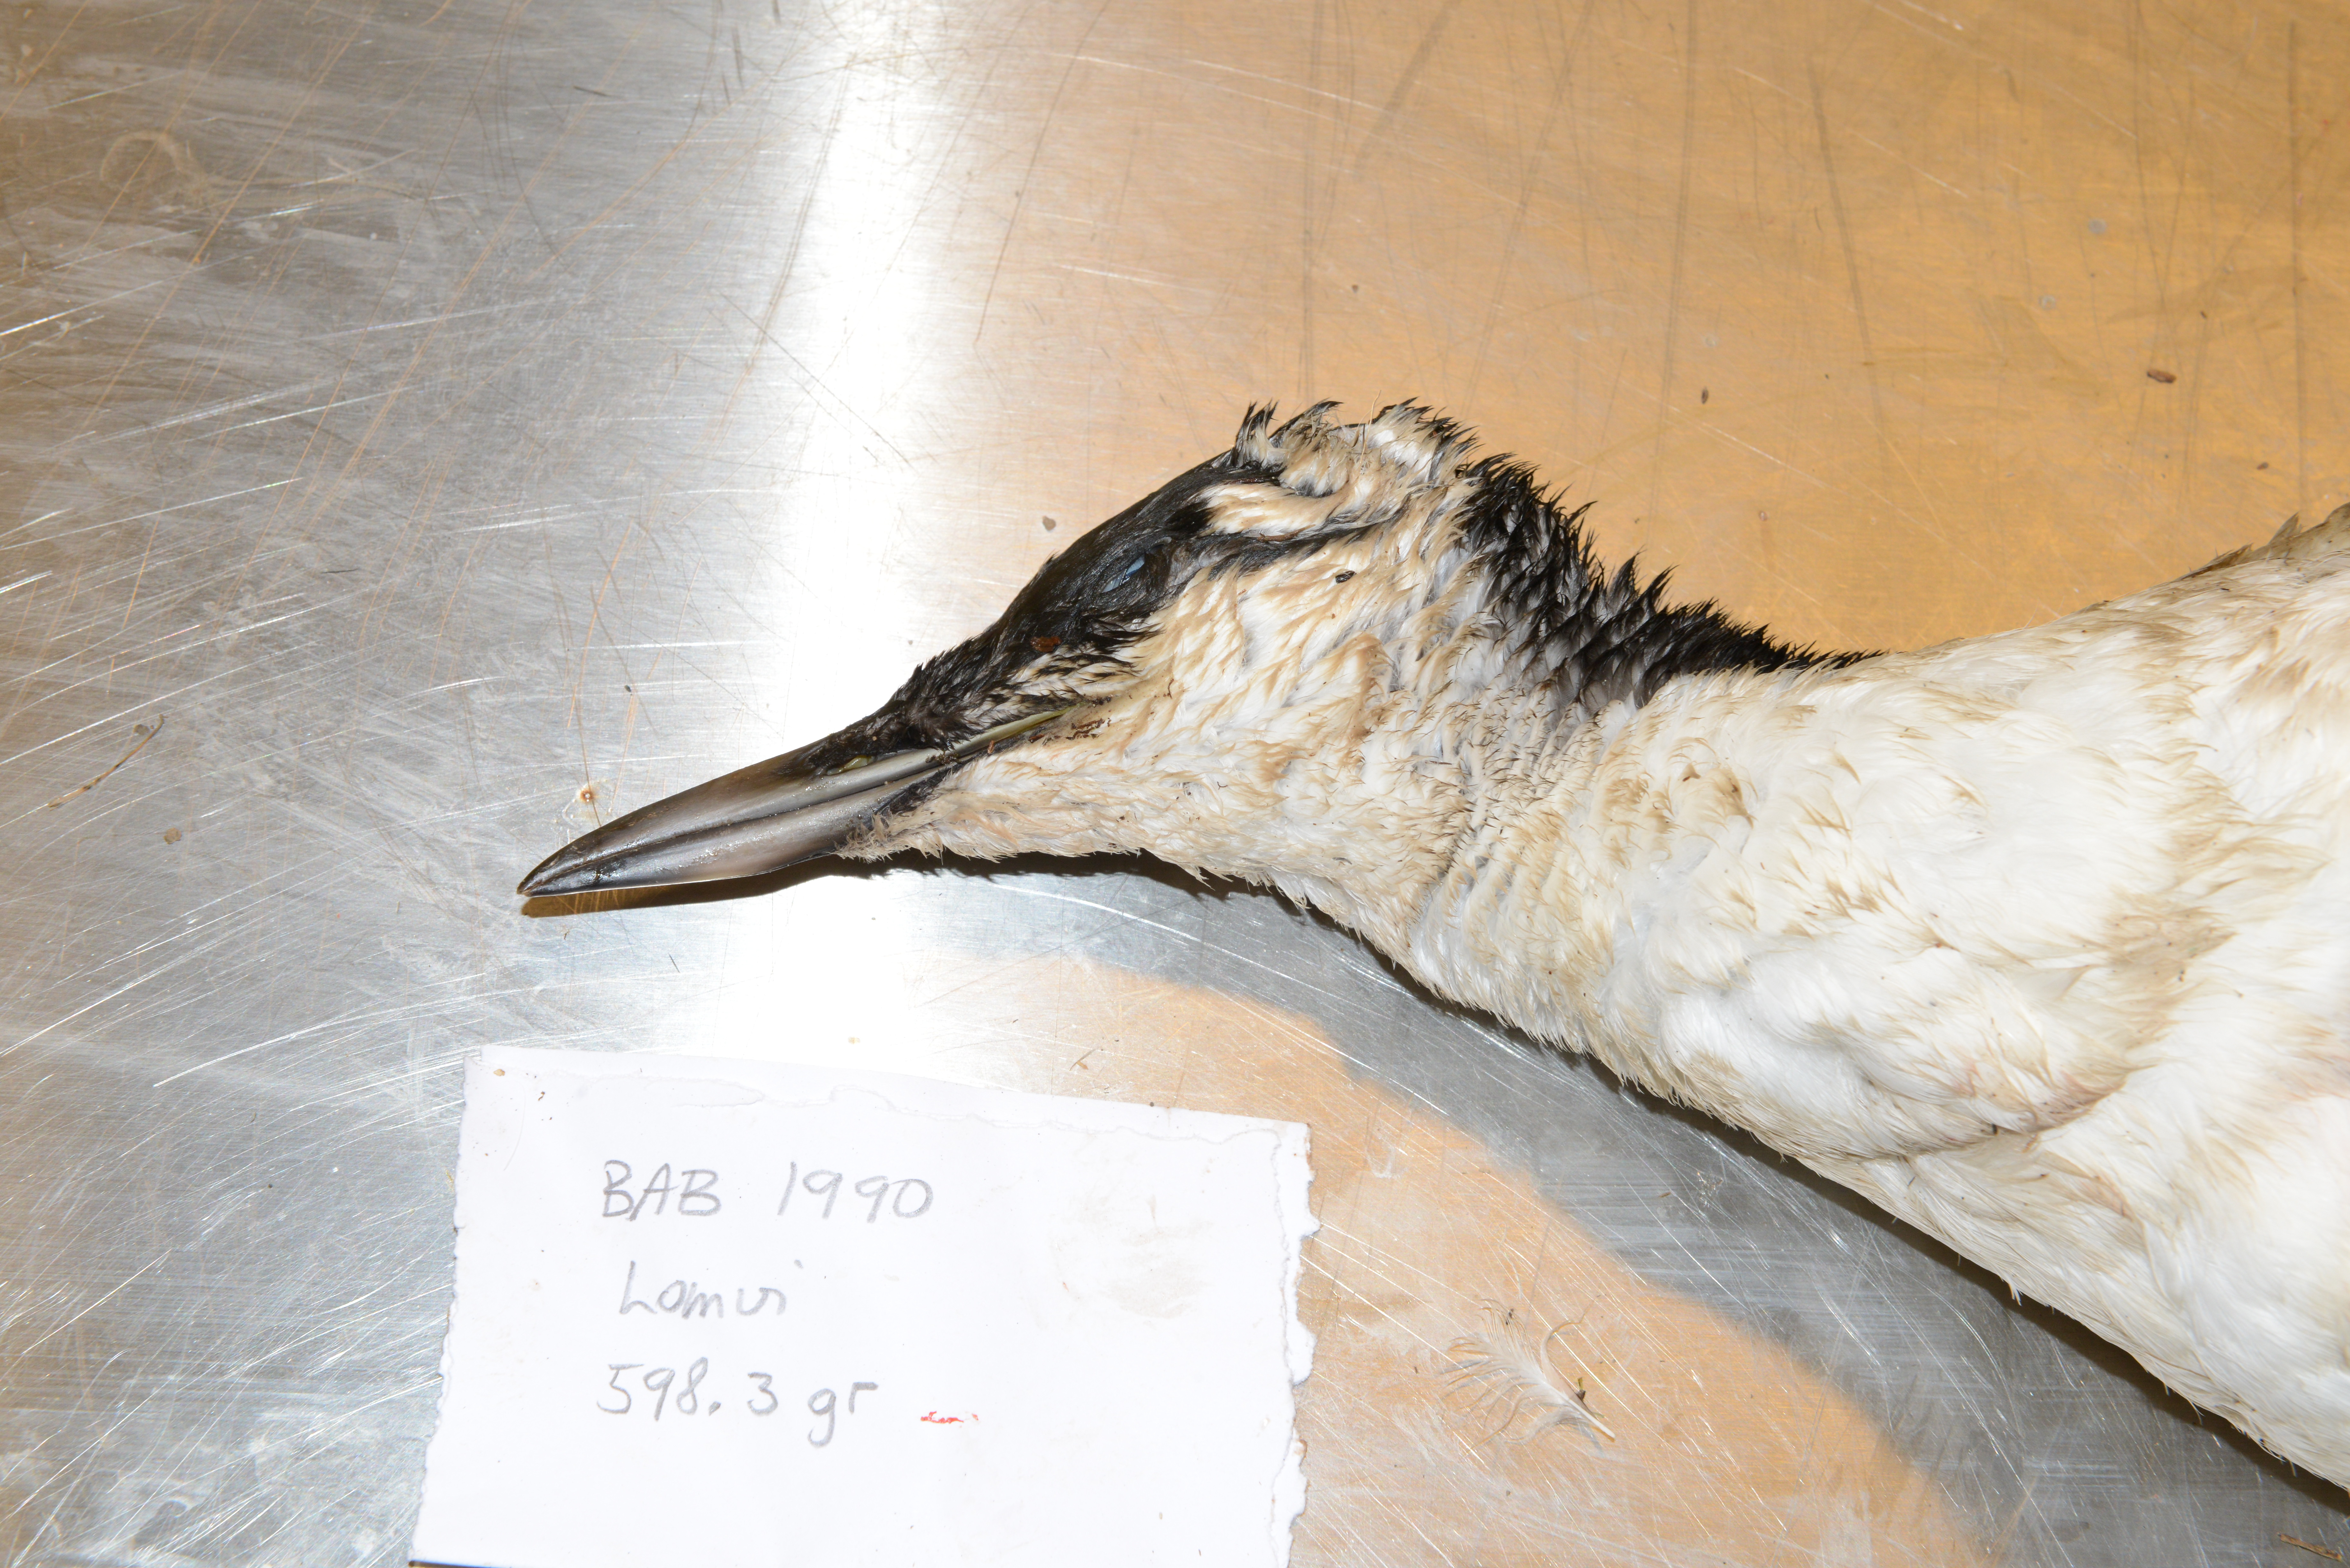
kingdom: Animalia
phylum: Chordata
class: Aves
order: Charadriiformes
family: Alcidae
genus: Uria
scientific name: Uria aalge
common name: Common murre
